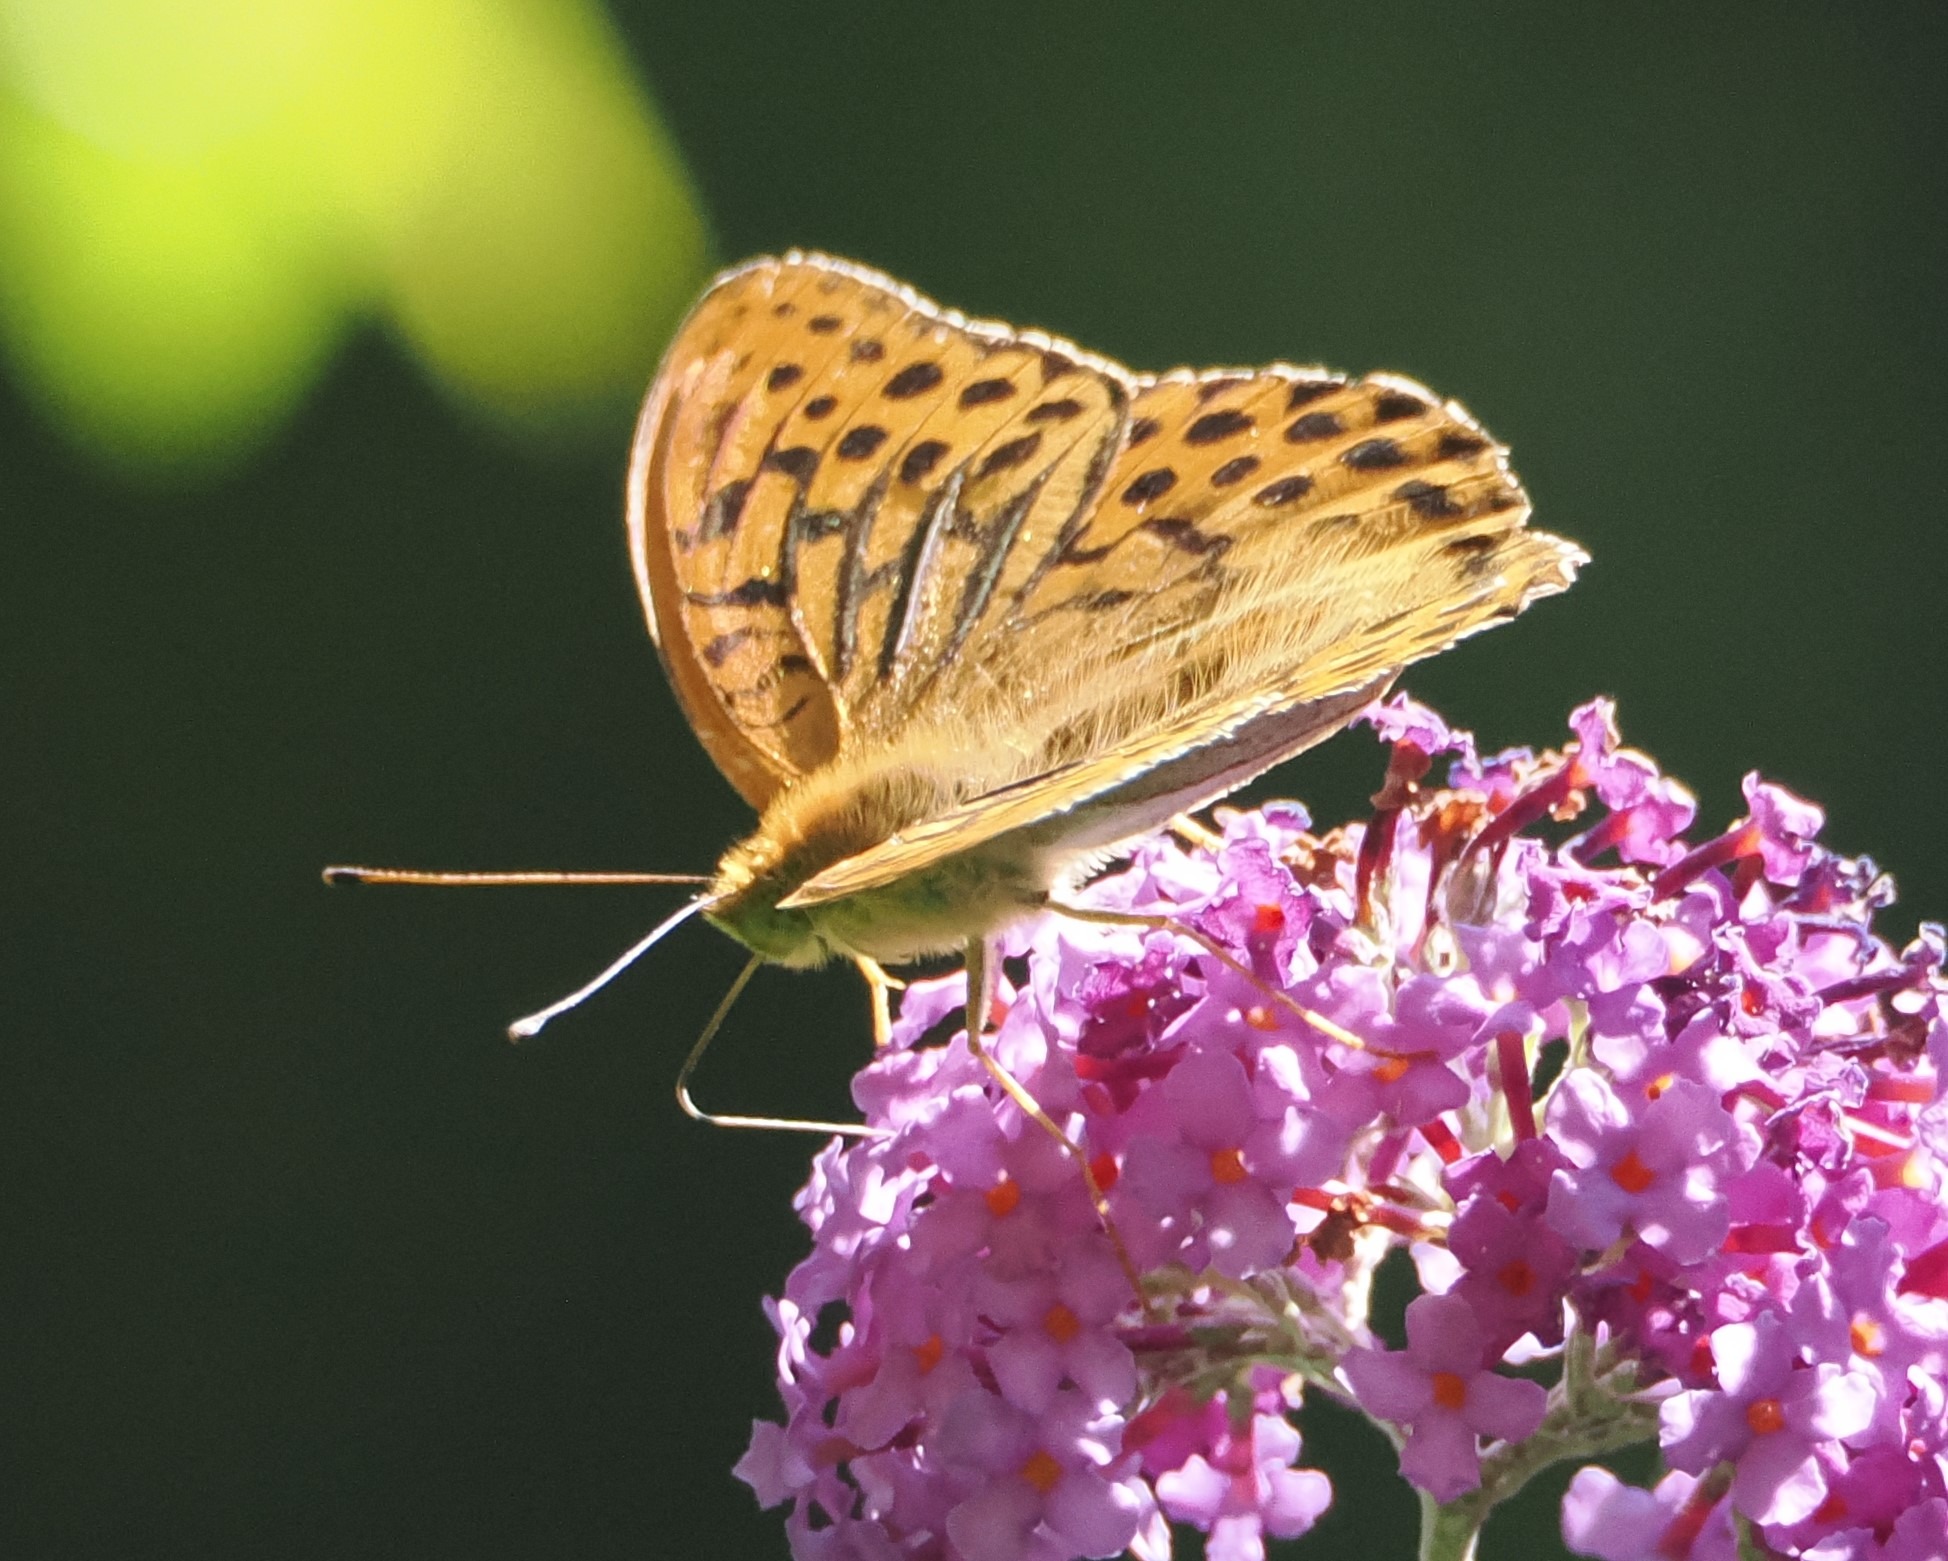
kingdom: Animalia
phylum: Arthropoda
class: Insecta
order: Lepidoptera
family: Nymphalidae
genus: Argynnis
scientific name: Argynnis paphia
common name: Kejserkåbe
